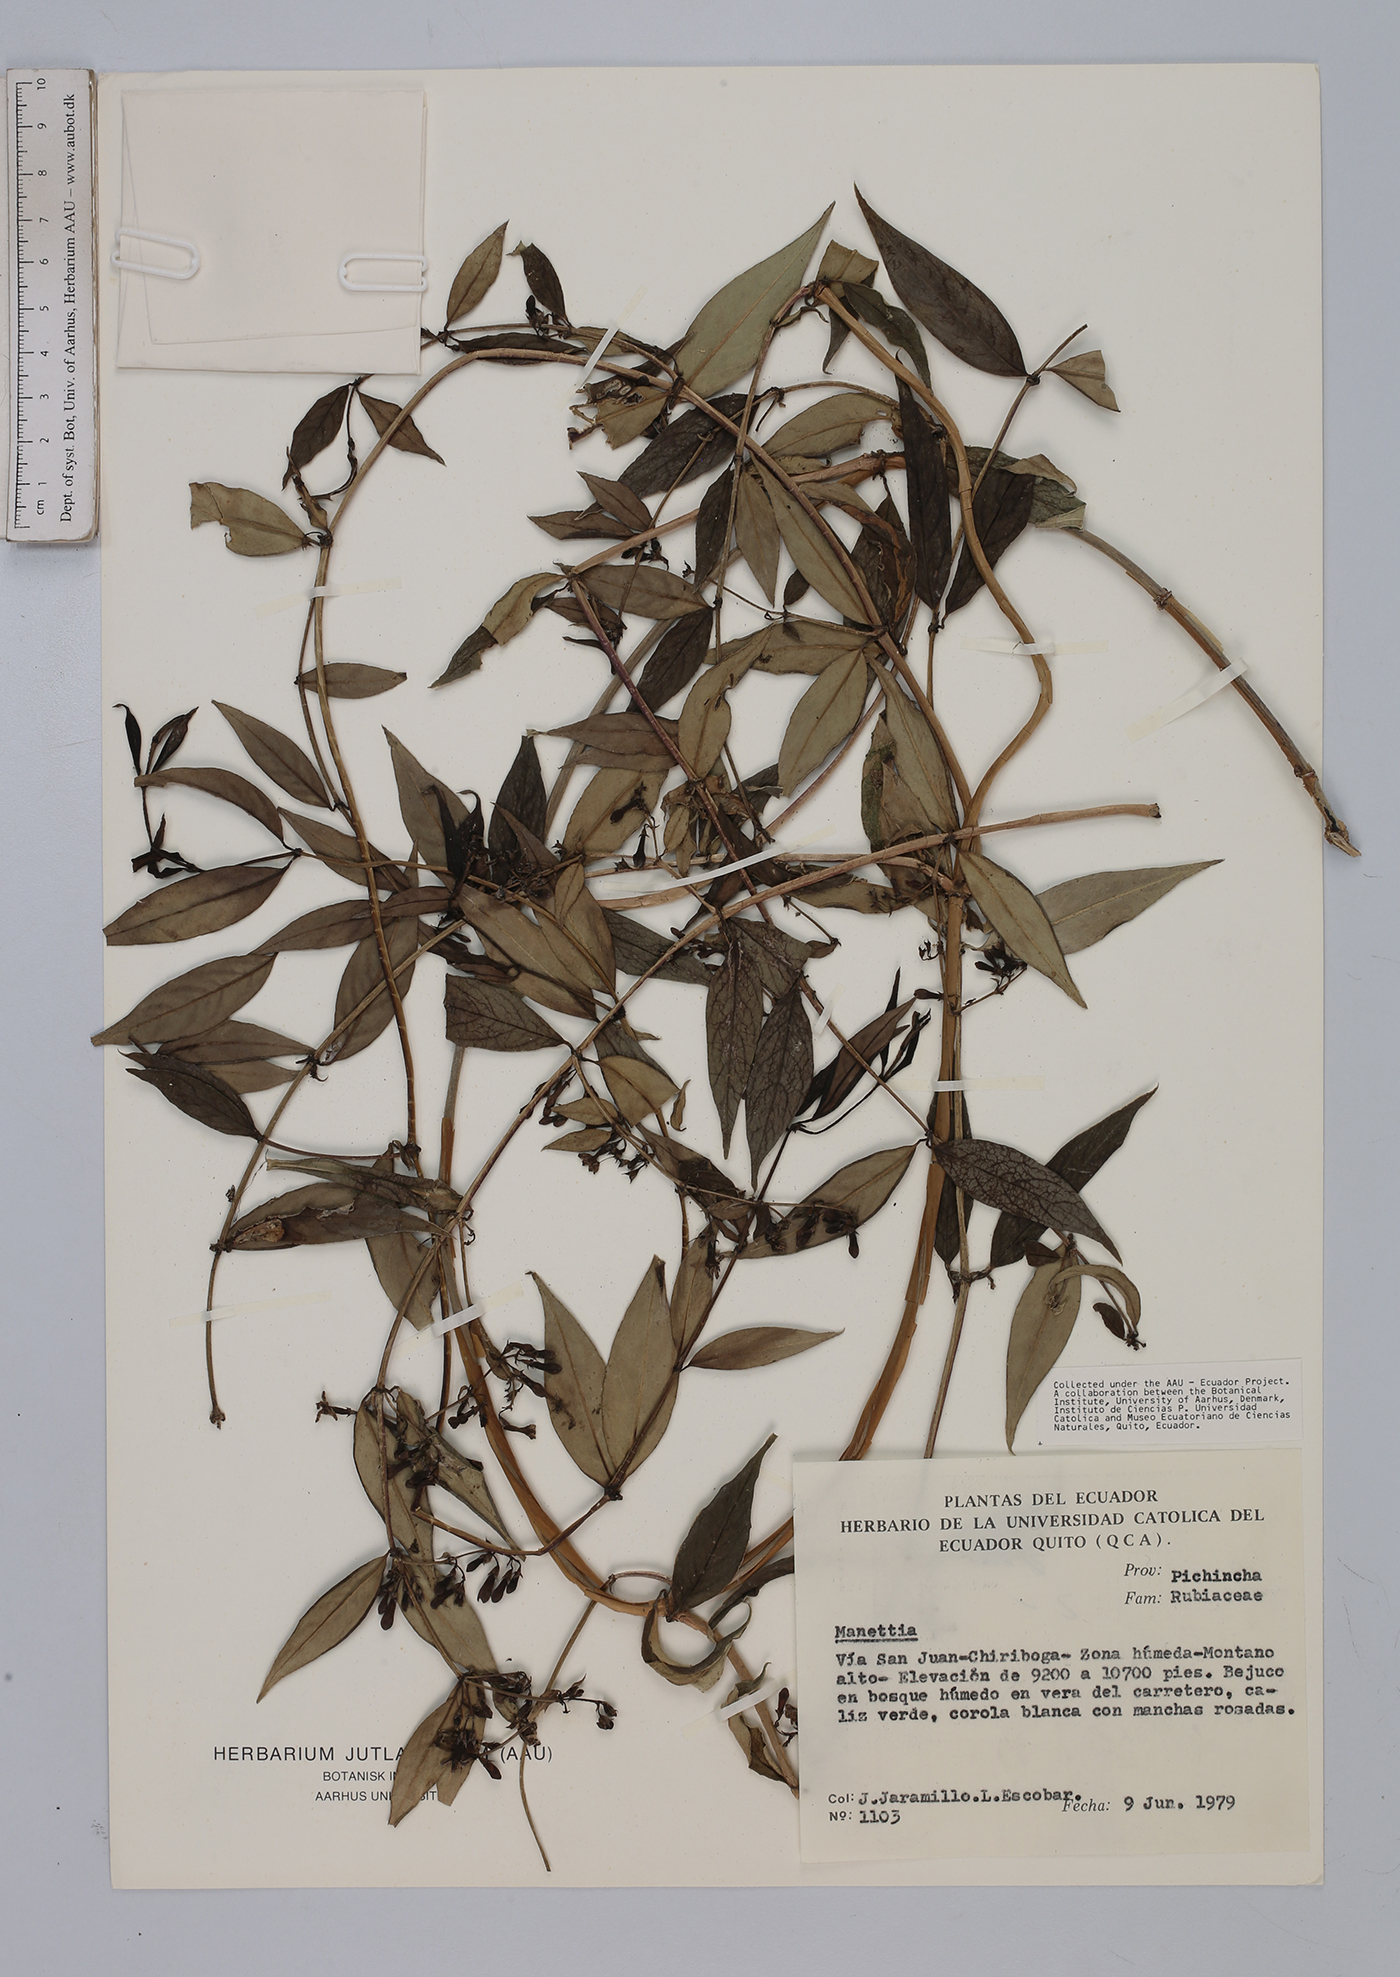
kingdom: Plantae
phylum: Tracheophyta
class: Magnoliopsida
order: Gentianales
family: Rubiaceae
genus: Manettia
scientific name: Manettia
